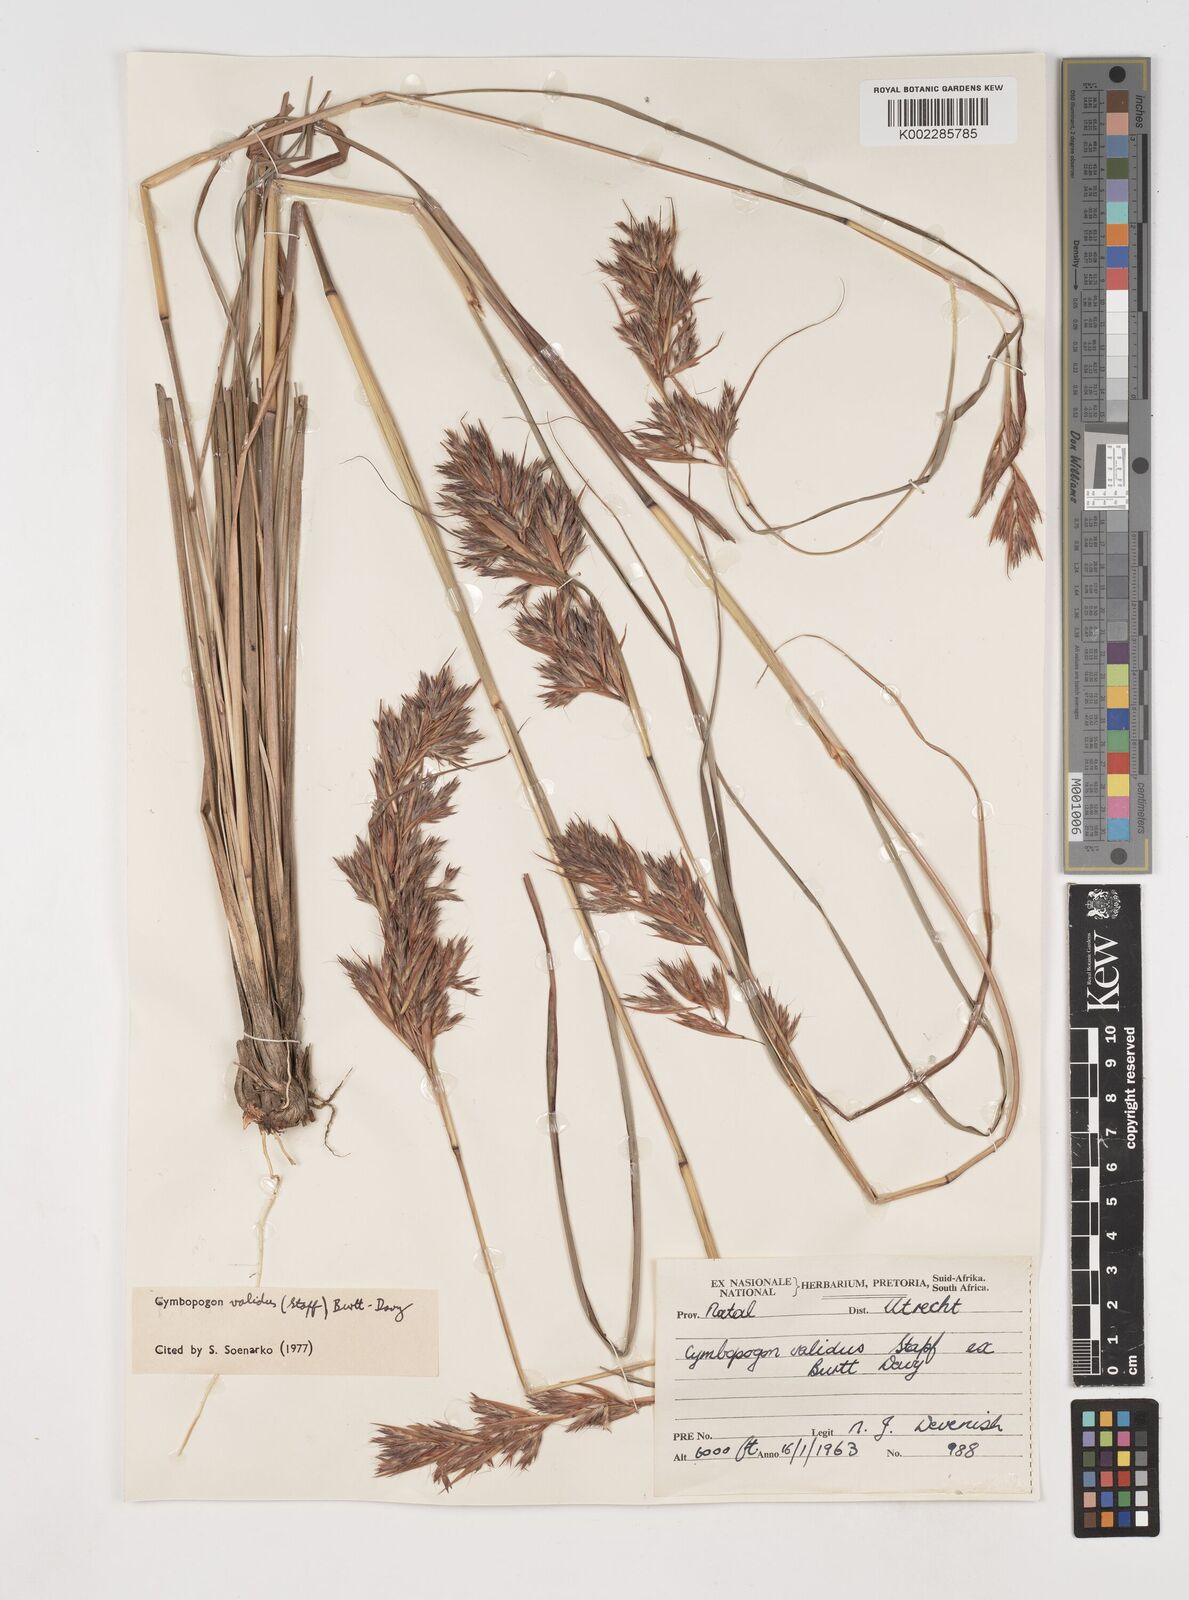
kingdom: Plantae
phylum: Tracheophyta
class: Liliopsida
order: Poales
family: Poaceae
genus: Cymbopogon
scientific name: Cymbopogon nardus
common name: Giant turpentine grass
